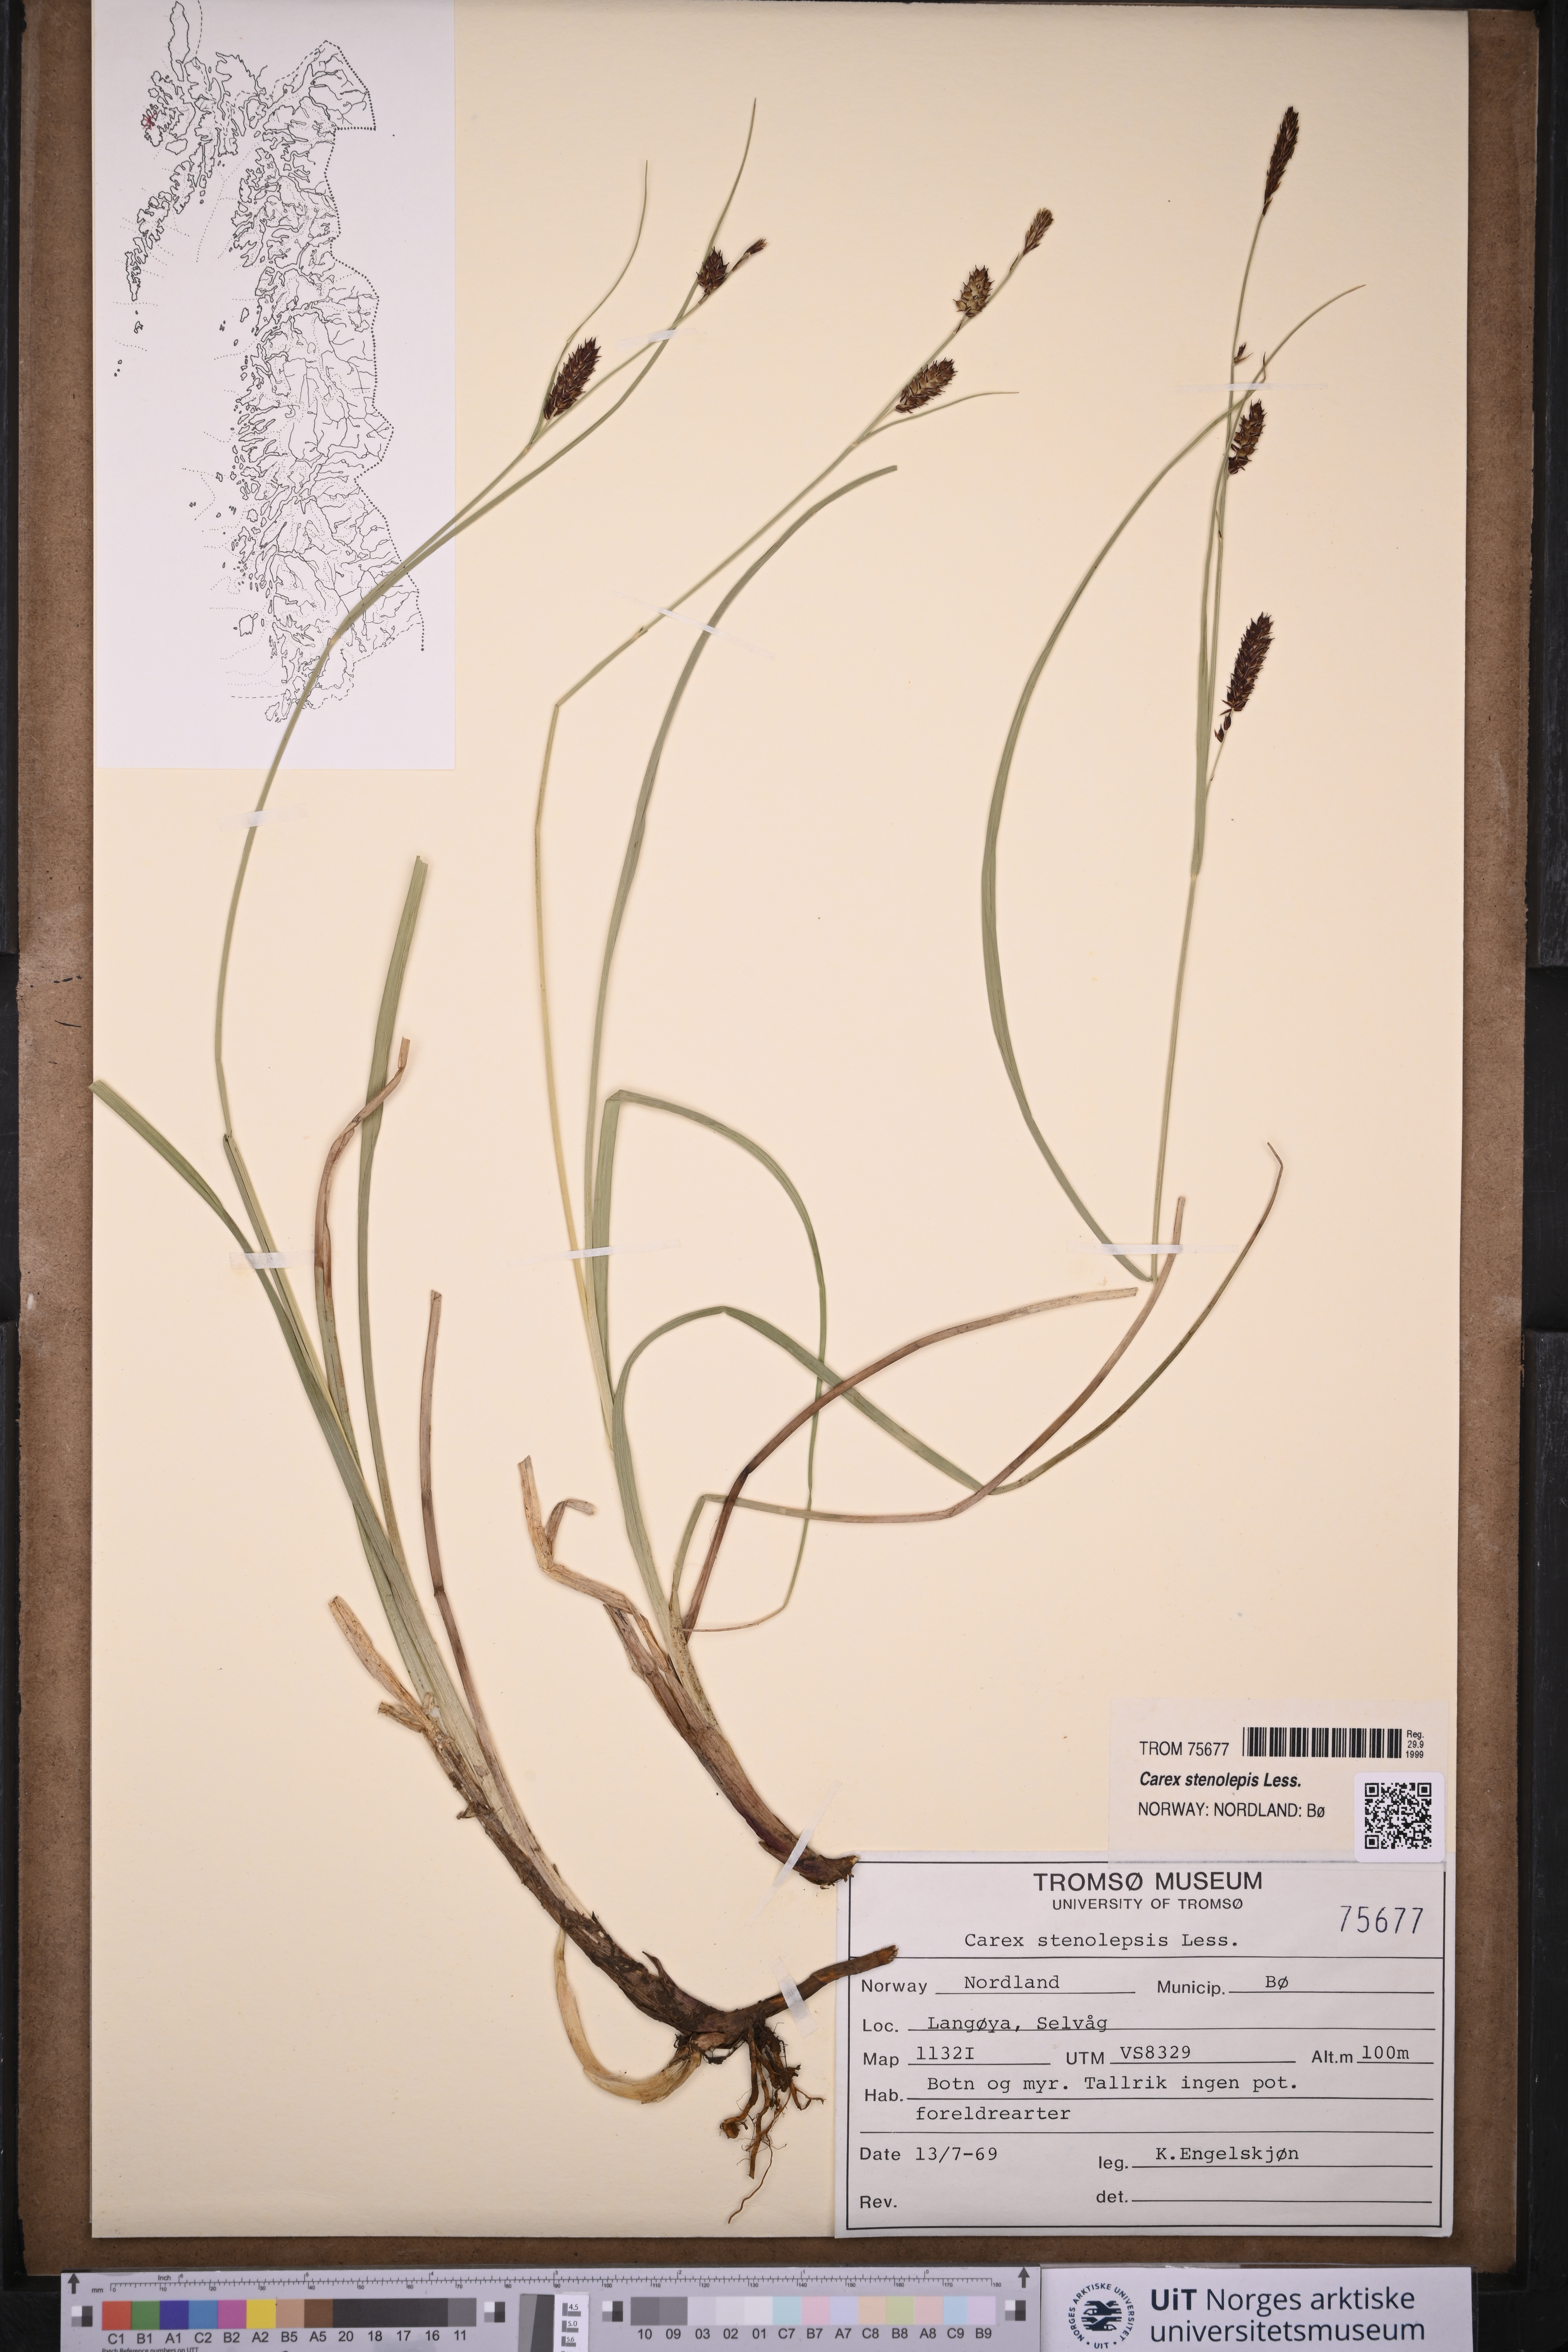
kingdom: Plantae
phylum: Tracheophyta
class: Liliopsida
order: Poales
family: Cyperaceae
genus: Carex
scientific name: Carex grahamii
